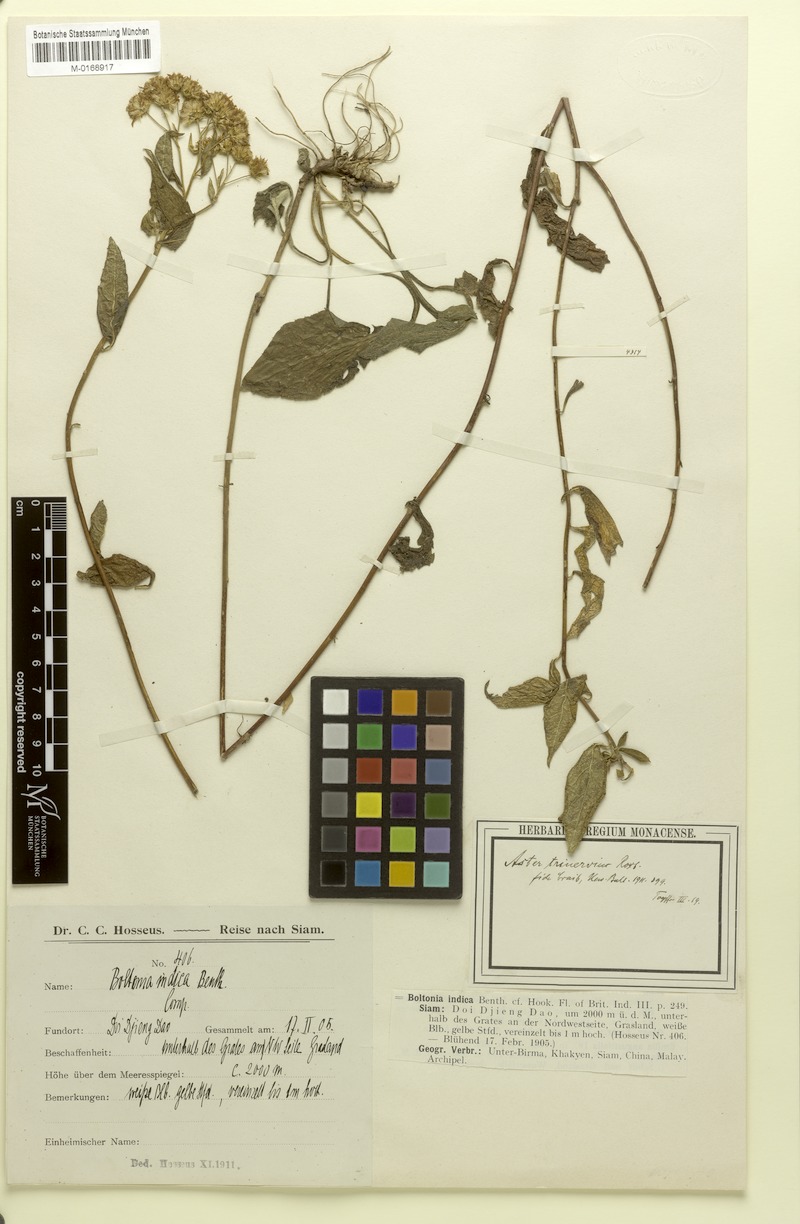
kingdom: Plantae
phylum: Tracheophyta
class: Magnoliopsida
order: Asterales
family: Asteraceae
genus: Aster
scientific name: Aster trinervius
